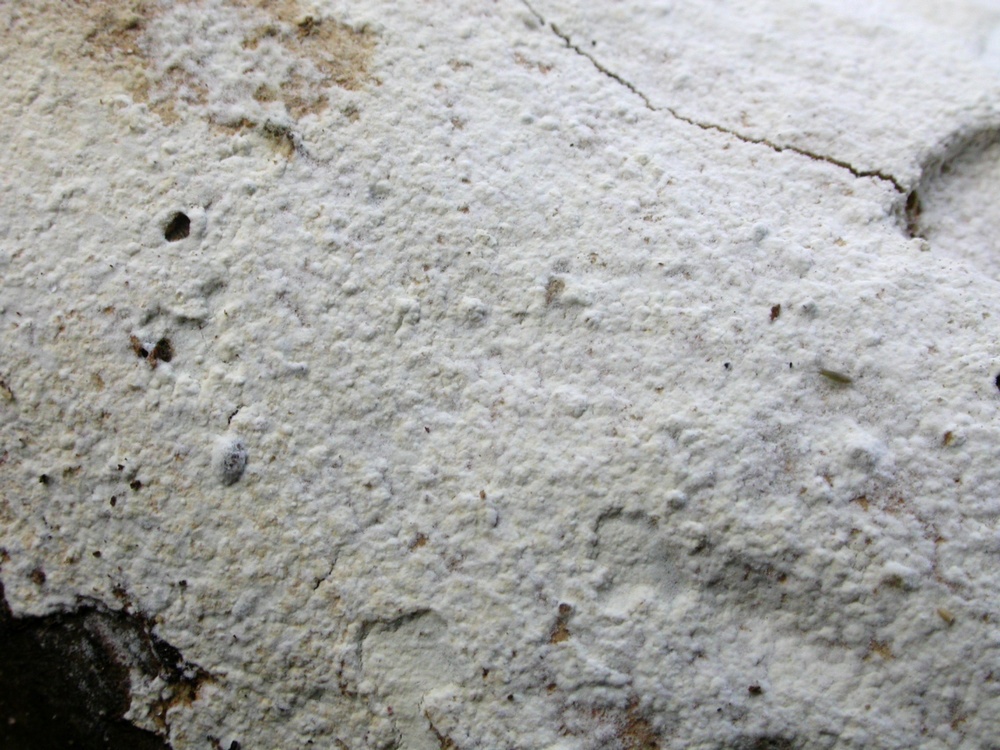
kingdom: Fungi
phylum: Basidiomycota
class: Agaricomycetes
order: Corticiales
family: Corticiaceae
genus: Lyomyces
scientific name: Lyomyces sambuci
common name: almindelig hyldehinde
